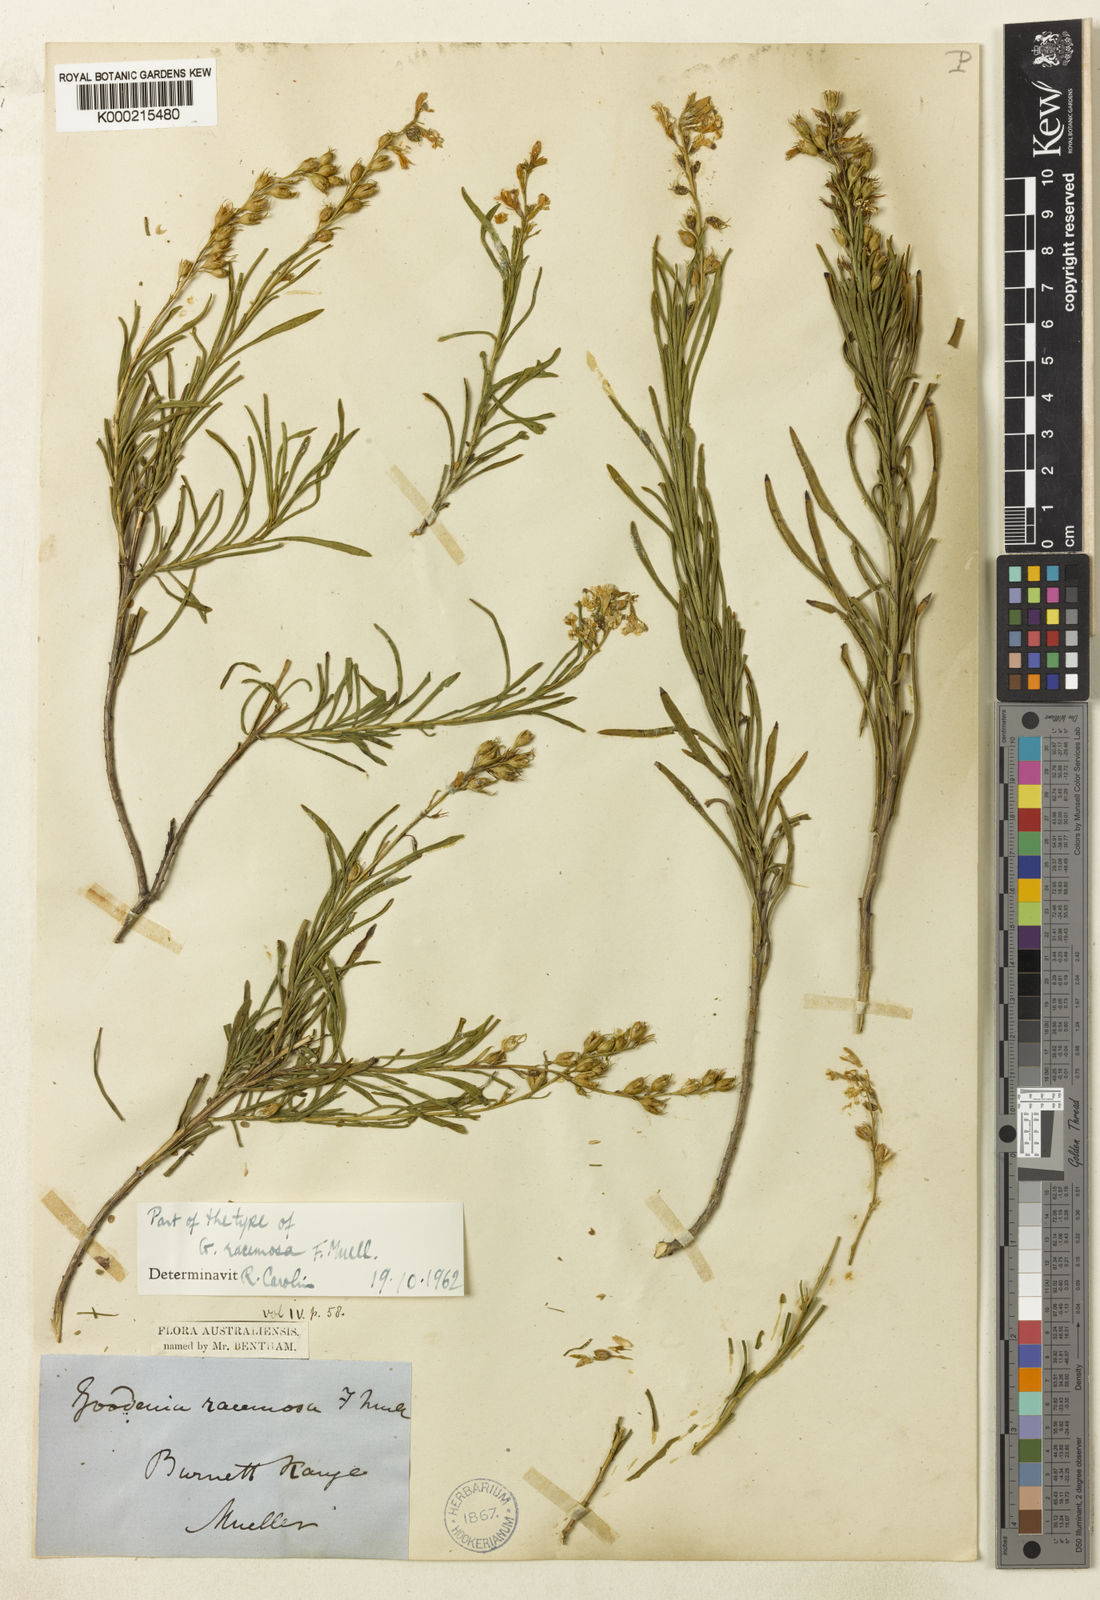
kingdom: Plantae
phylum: Tracheophyta
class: Magnoliopsida
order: Asterales
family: Goodeniaceae
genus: Goodenia
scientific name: Goodenia racemosa
